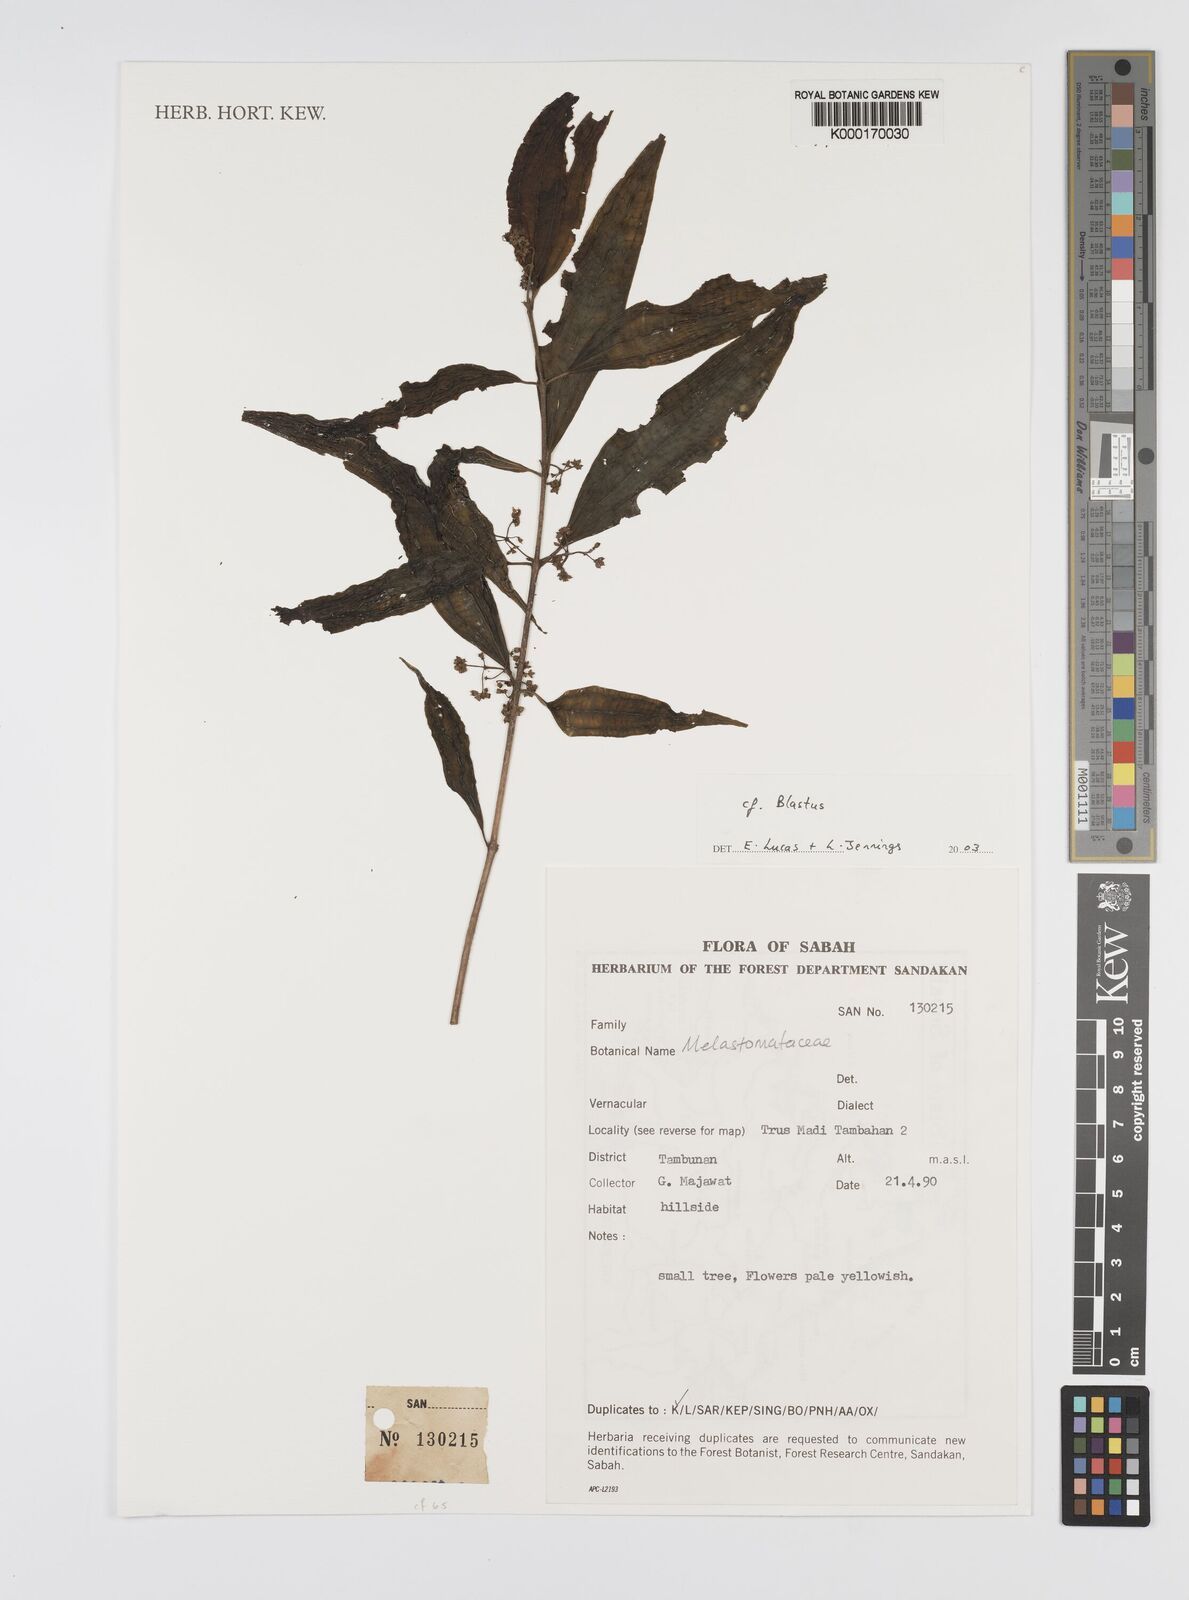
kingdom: Plantae
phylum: Tracheophyta
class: Magnoliopsida
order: Myrtales
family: Melastomataceae
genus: Blastus
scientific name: Blastus
